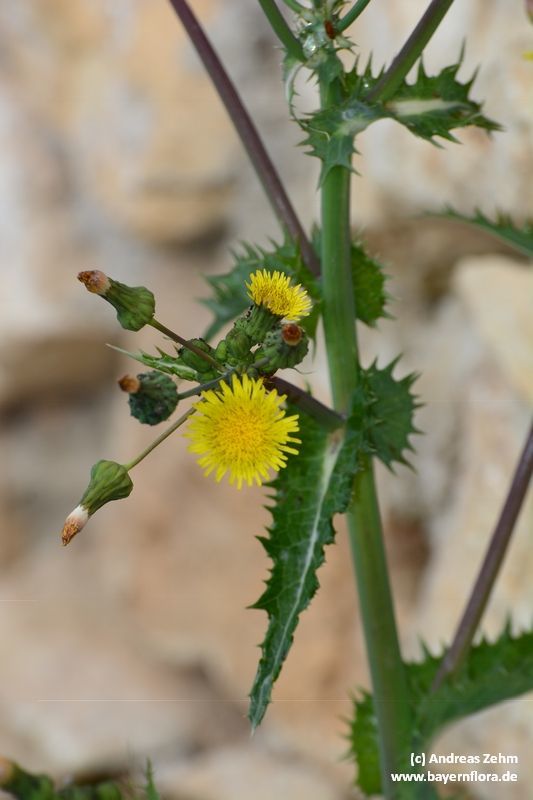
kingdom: Plantae
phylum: Tracheophyta
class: Magnoliopsida
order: Asterales
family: Asteraceae
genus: Sonchus
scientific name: Sonchus asper
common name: Prickly sow-thistle
